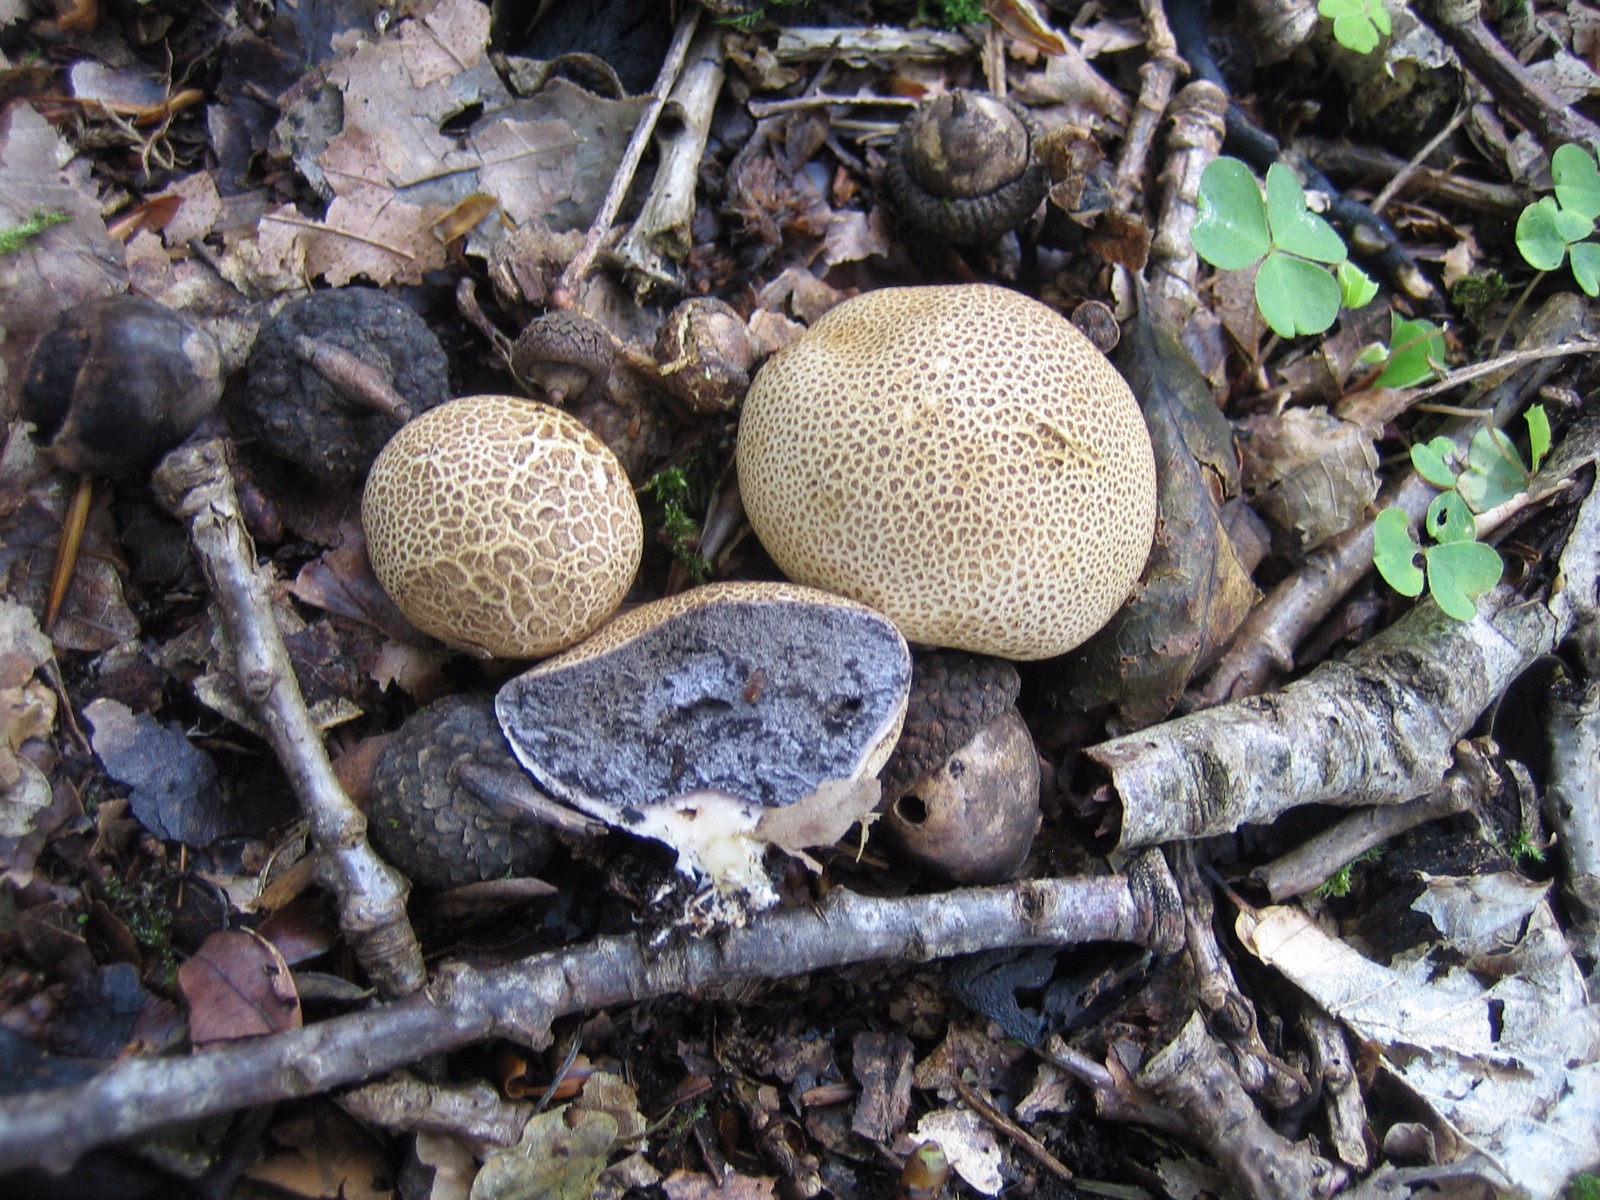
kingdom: Fungi
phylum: Basidiomycota
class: Agaricomycetes
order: Boletales
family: Sclerodermataceae
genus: Scleroderma
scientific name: Scleroderma citrinum
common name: almindelig bruskbold
